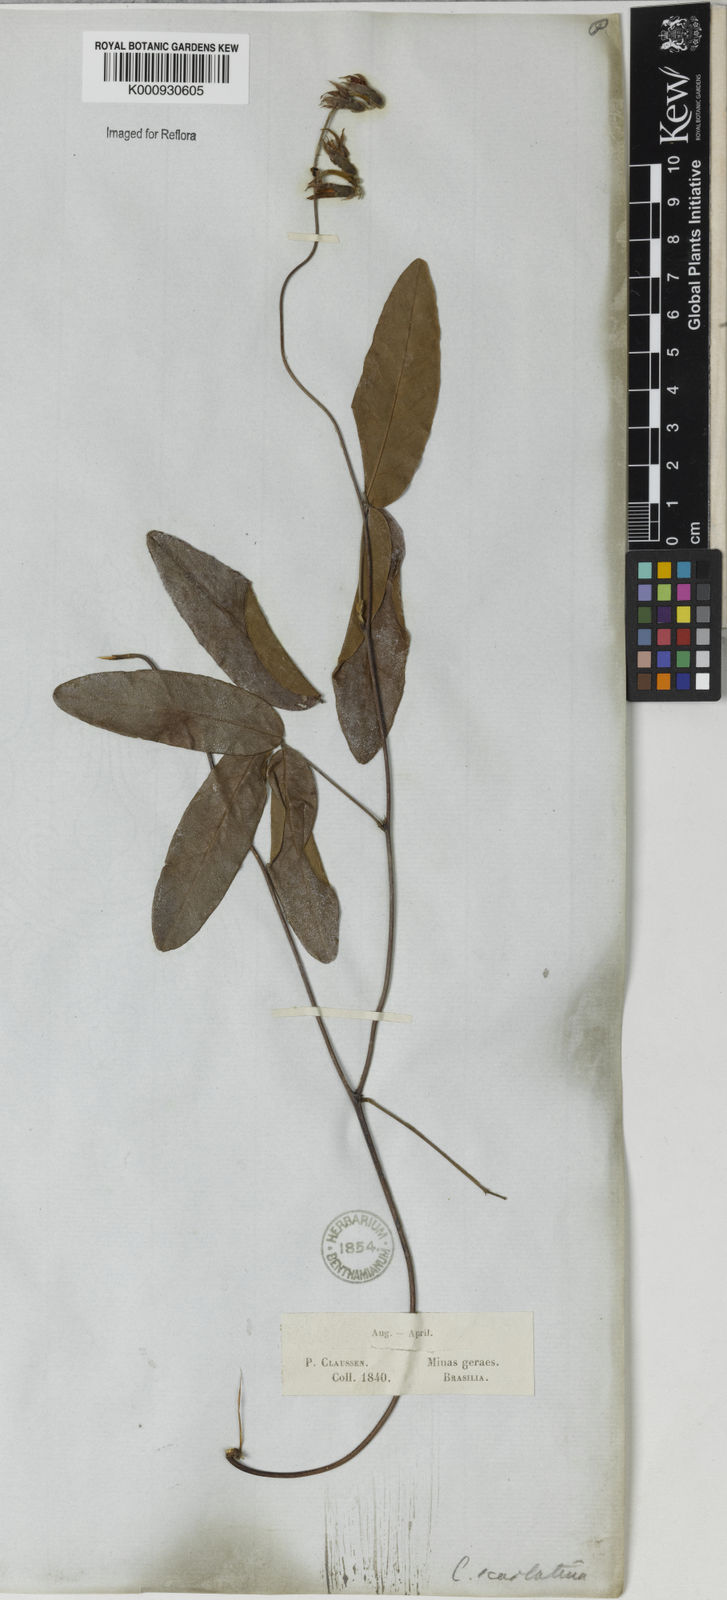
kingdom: Plantae
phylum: Tracheophyta
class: Magnoliopsida
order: Fabales
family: Fabaceae
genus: Betencourtia
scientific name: Betencourtia scarlatina
